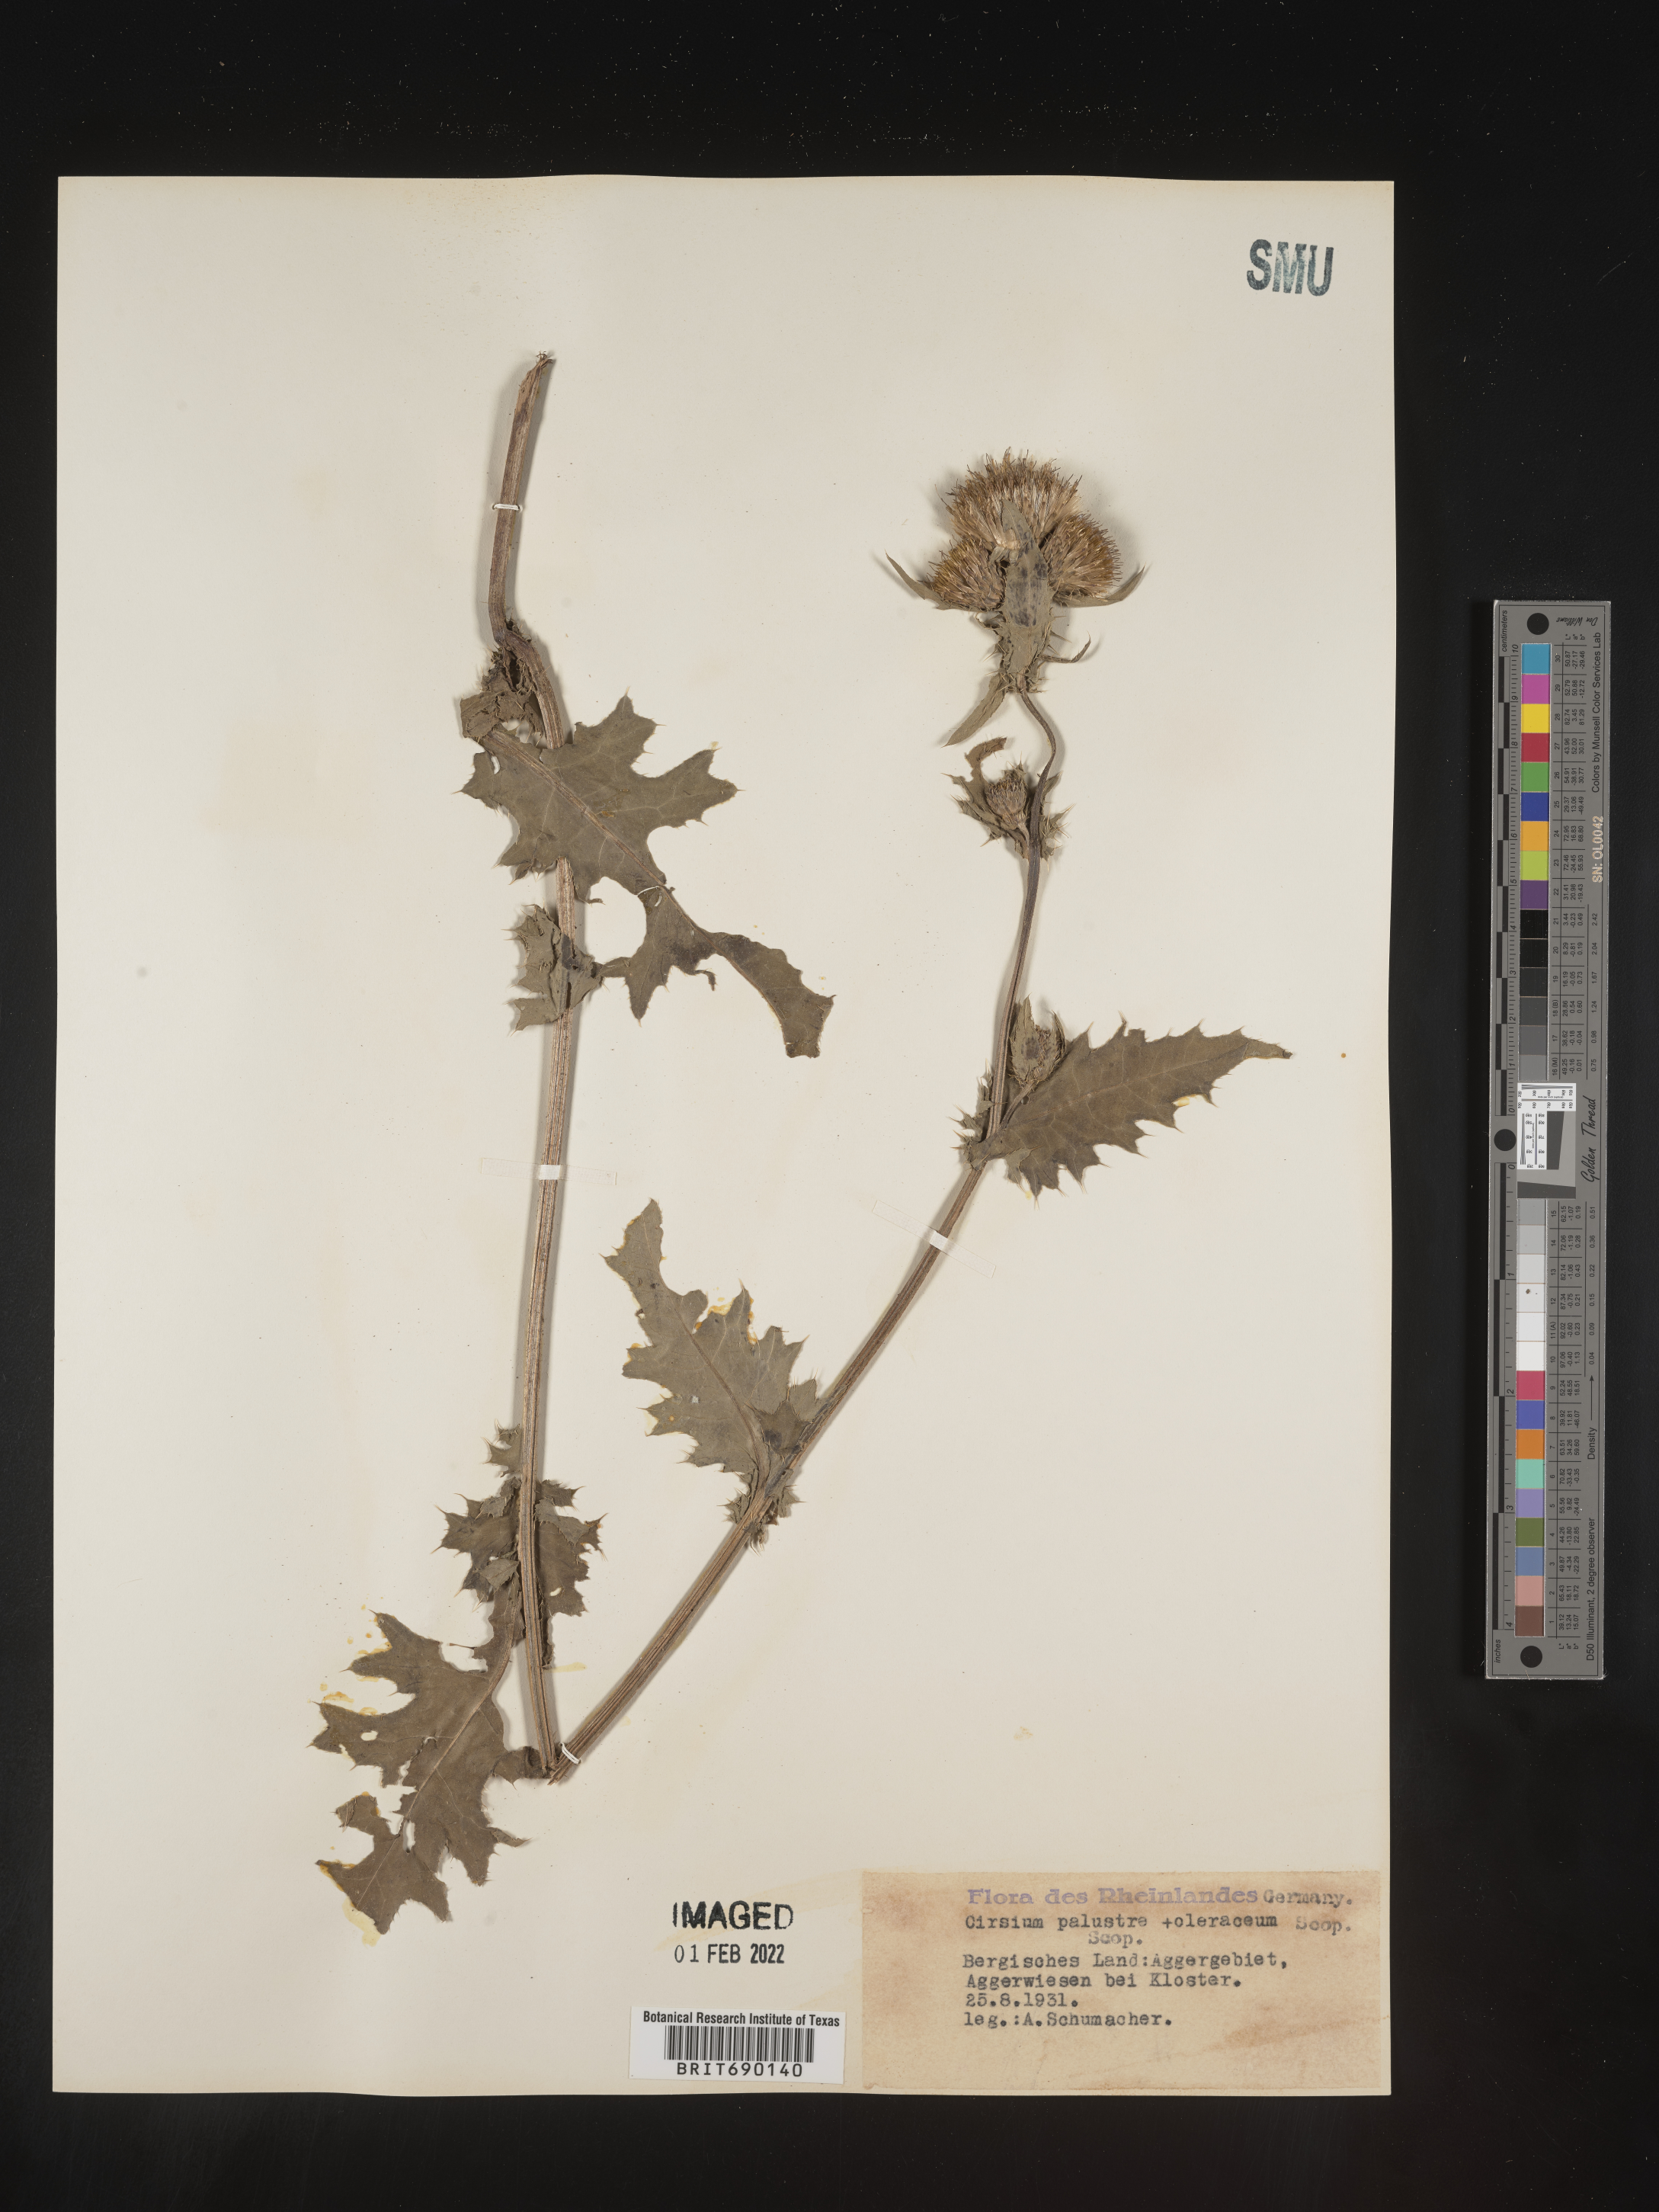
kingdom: Plantae
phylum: Tracheophyta
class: Magnoliopsida
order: Asterales
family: Asteraceae
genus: Cirsium
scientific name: Cirsium
